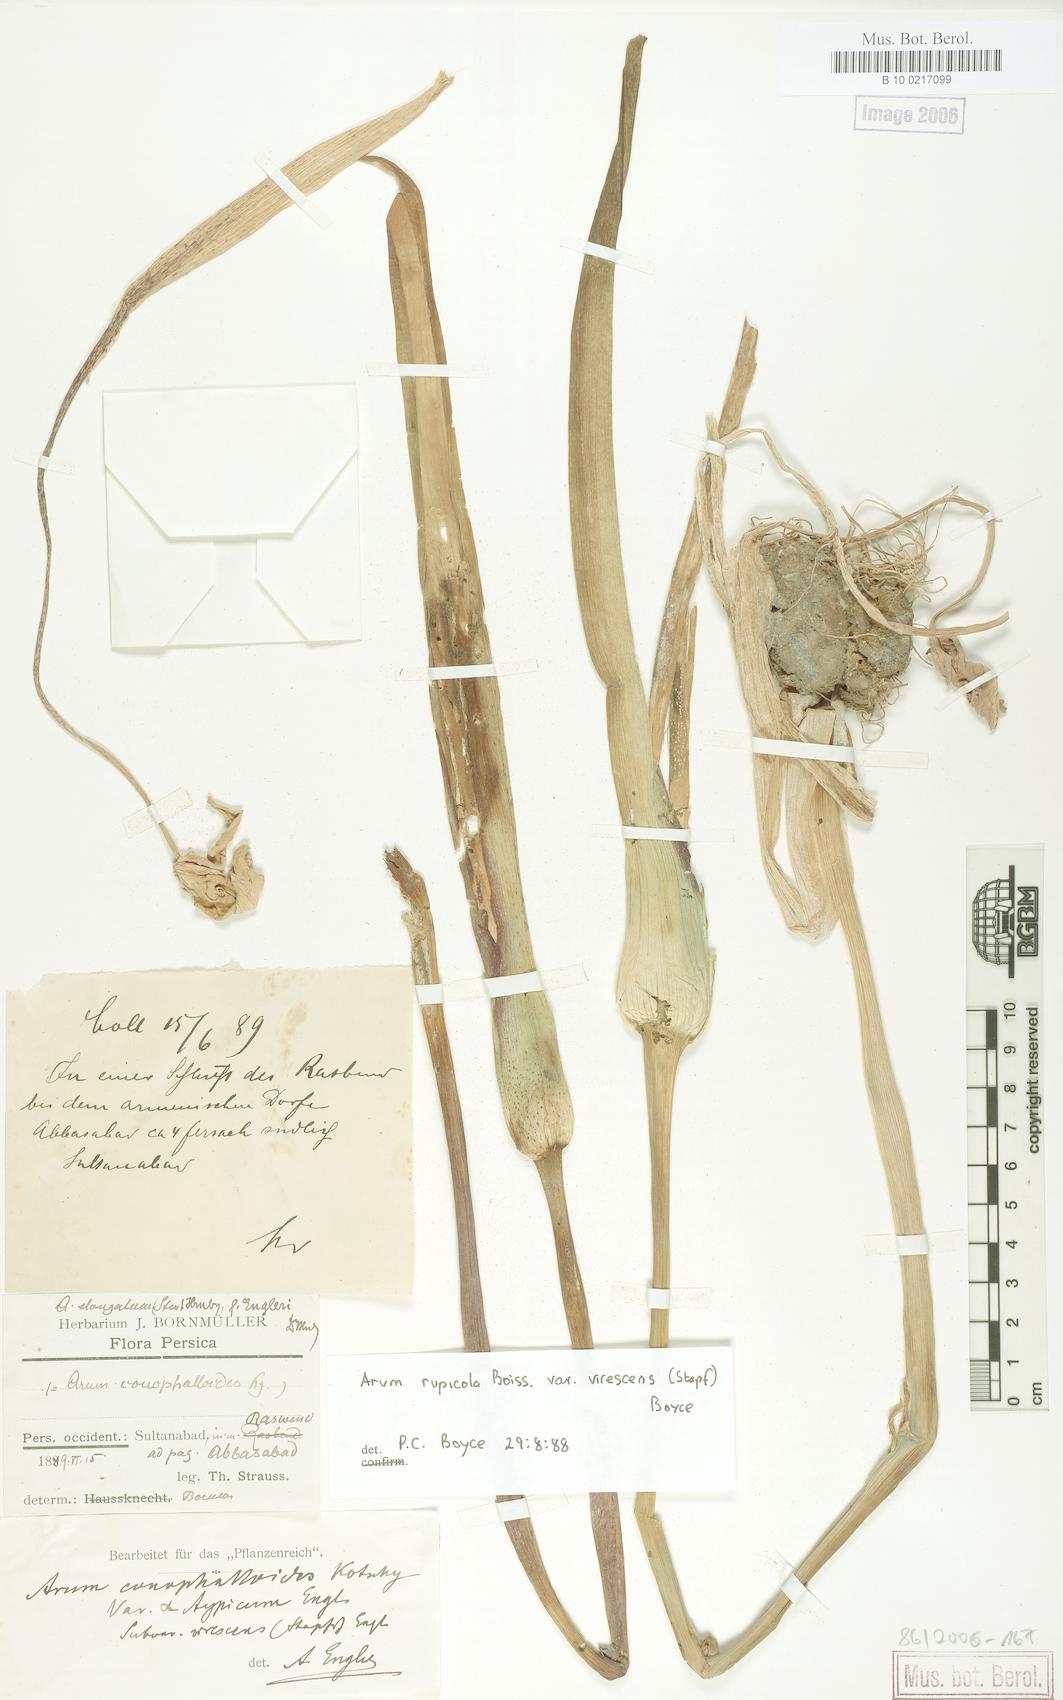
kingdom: Plantae
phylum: Tracheophyta
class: Liliopsida
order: Alismatales
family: Araceae
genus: Arum
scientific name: Arum rupicola
